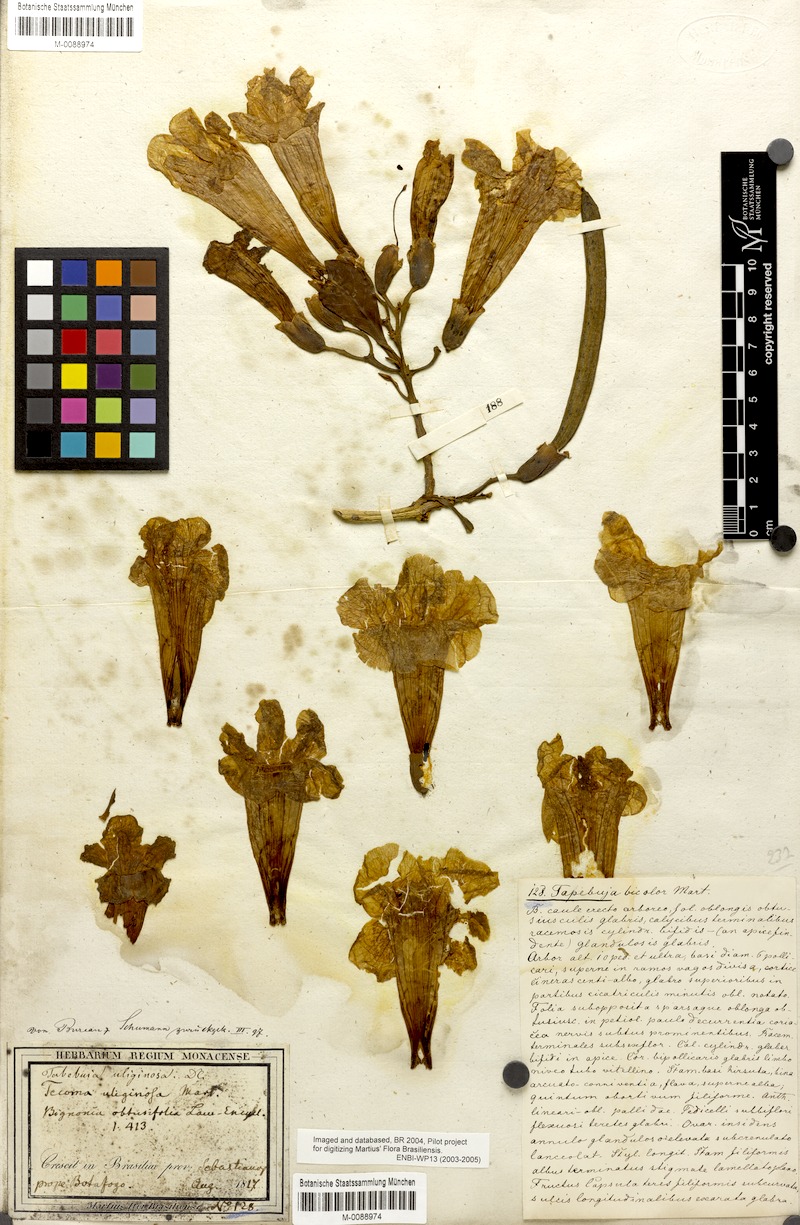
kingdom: Plantae
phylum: Tracheophyta
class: Magnoliopsida
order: Lamiales
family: Bignoniaceae
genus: Tabebuia
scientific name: Tabebuia cassinoides
